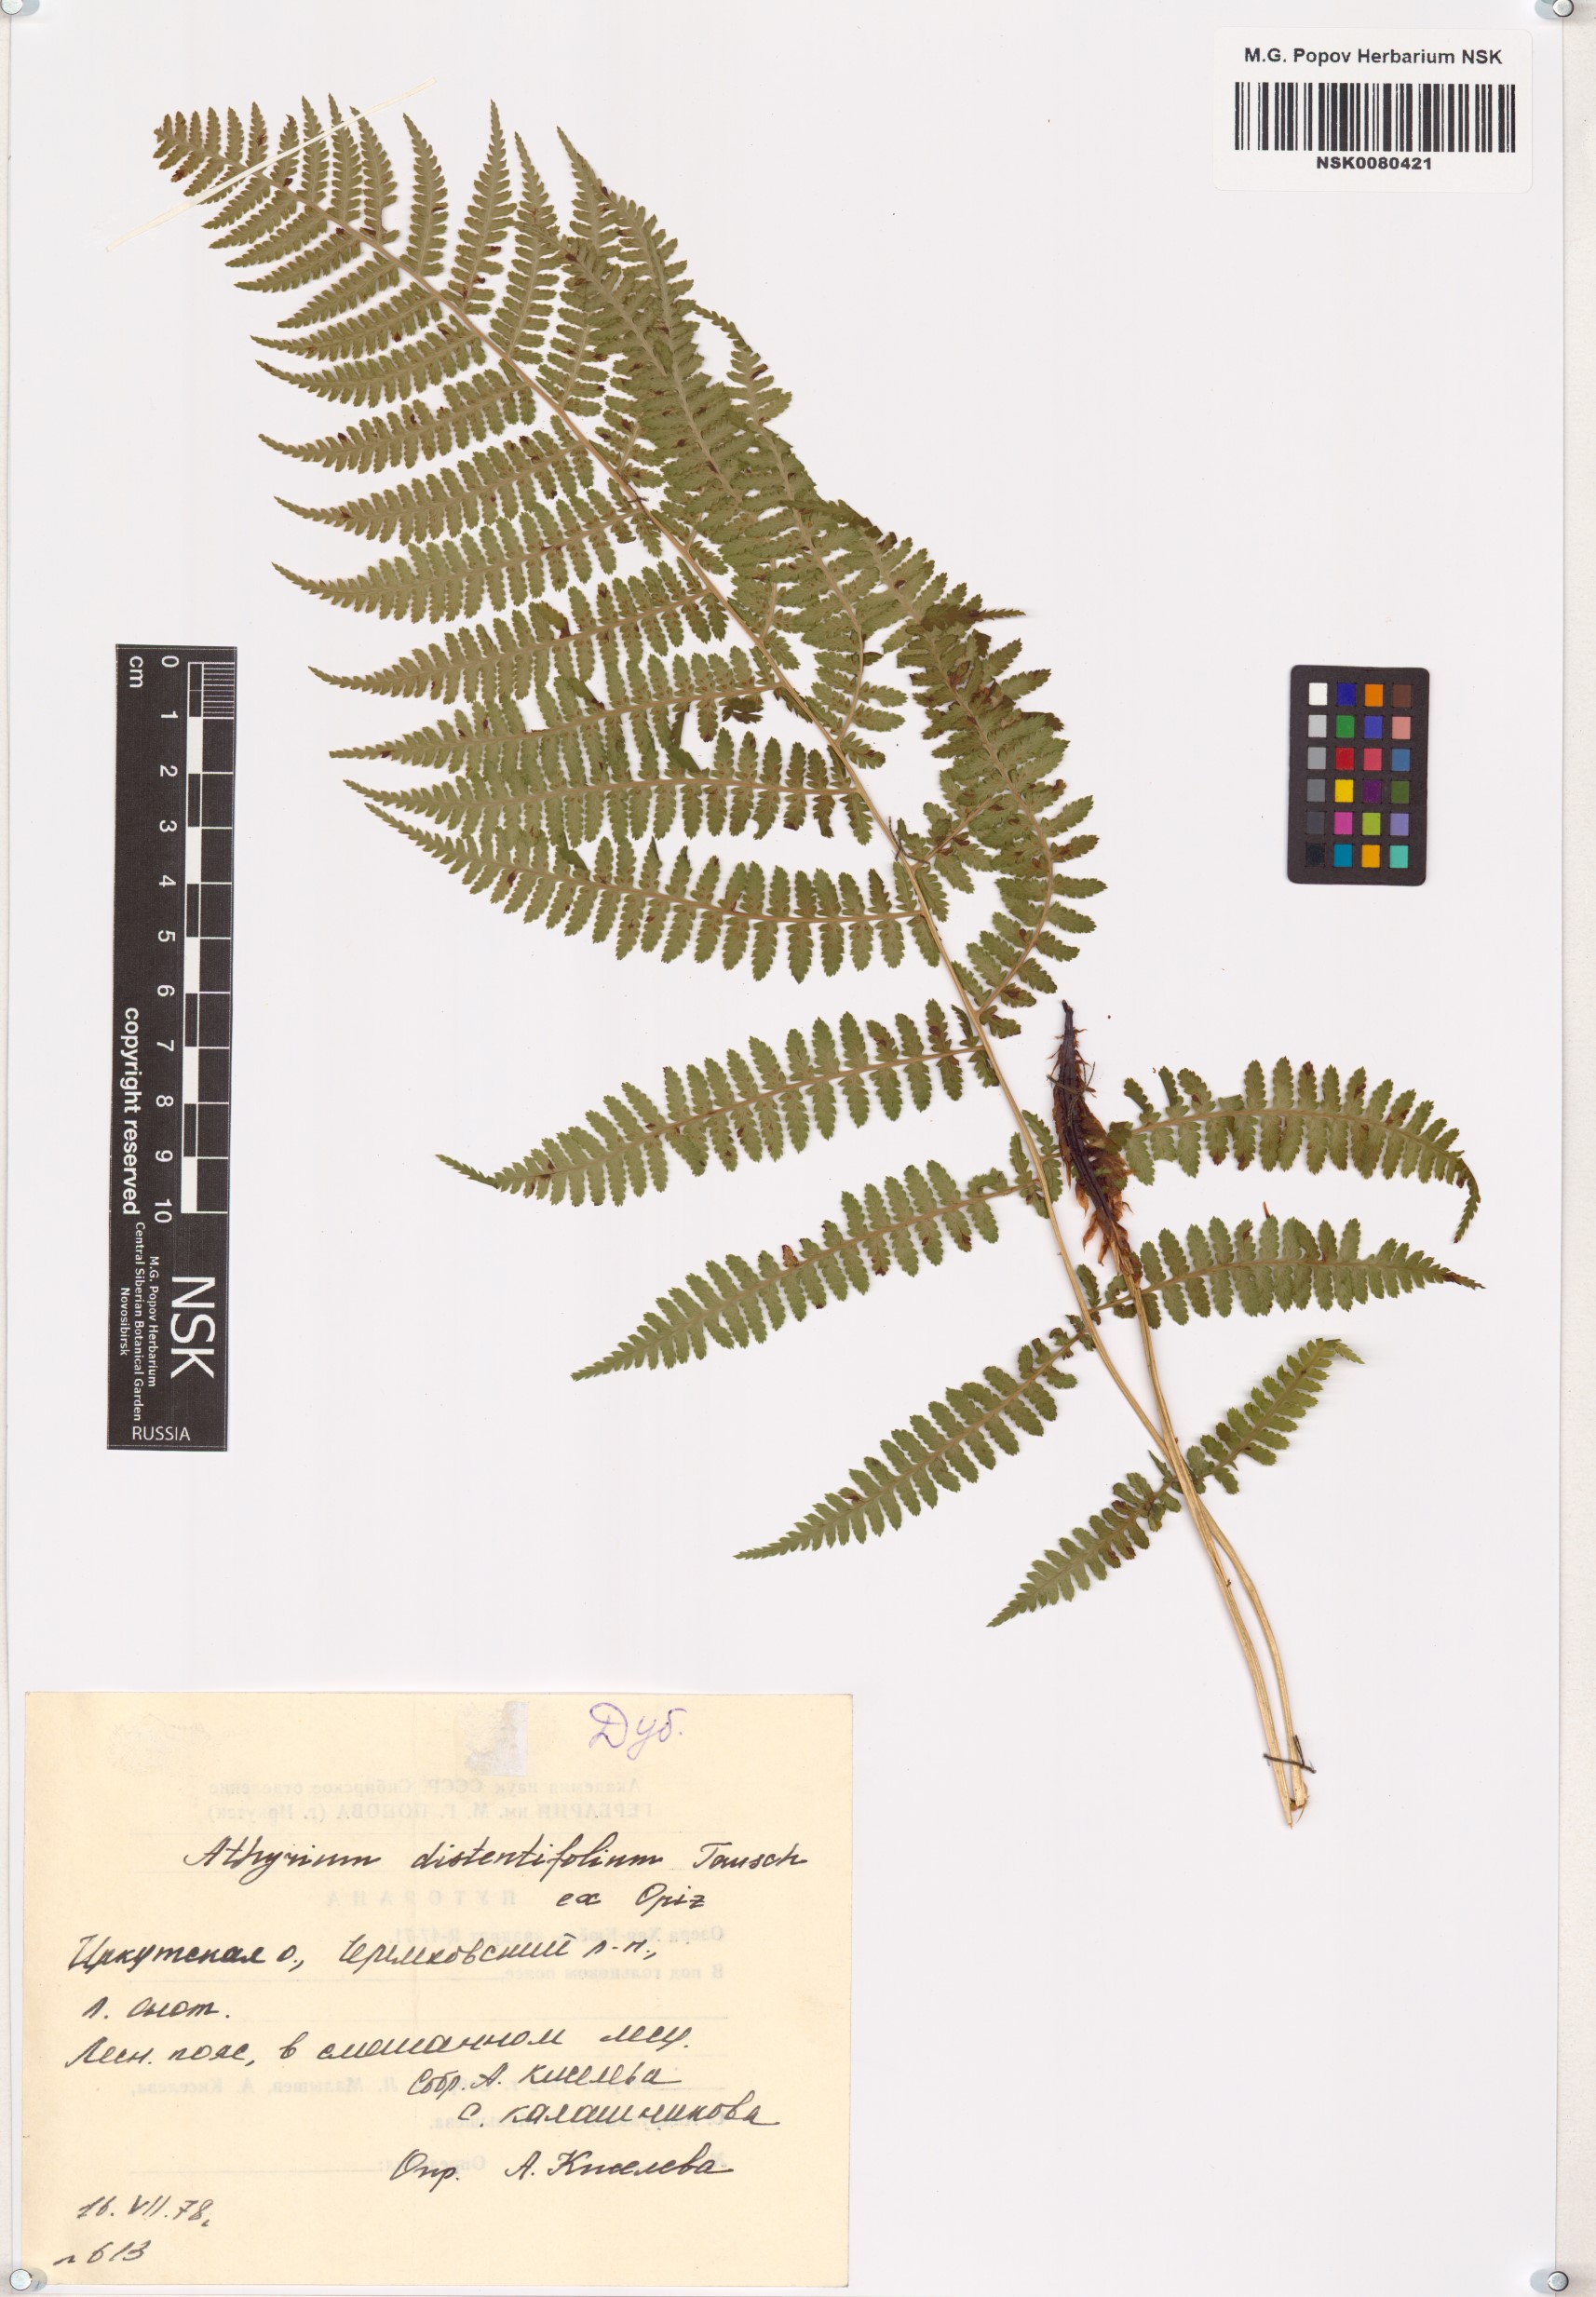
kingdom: Plantae
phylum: Tracheophyta
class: Polypodiopsida
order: Polypodiales
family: Athyriaceae
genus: Pseudathyrium
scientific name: Pseudathyrium alpestre
